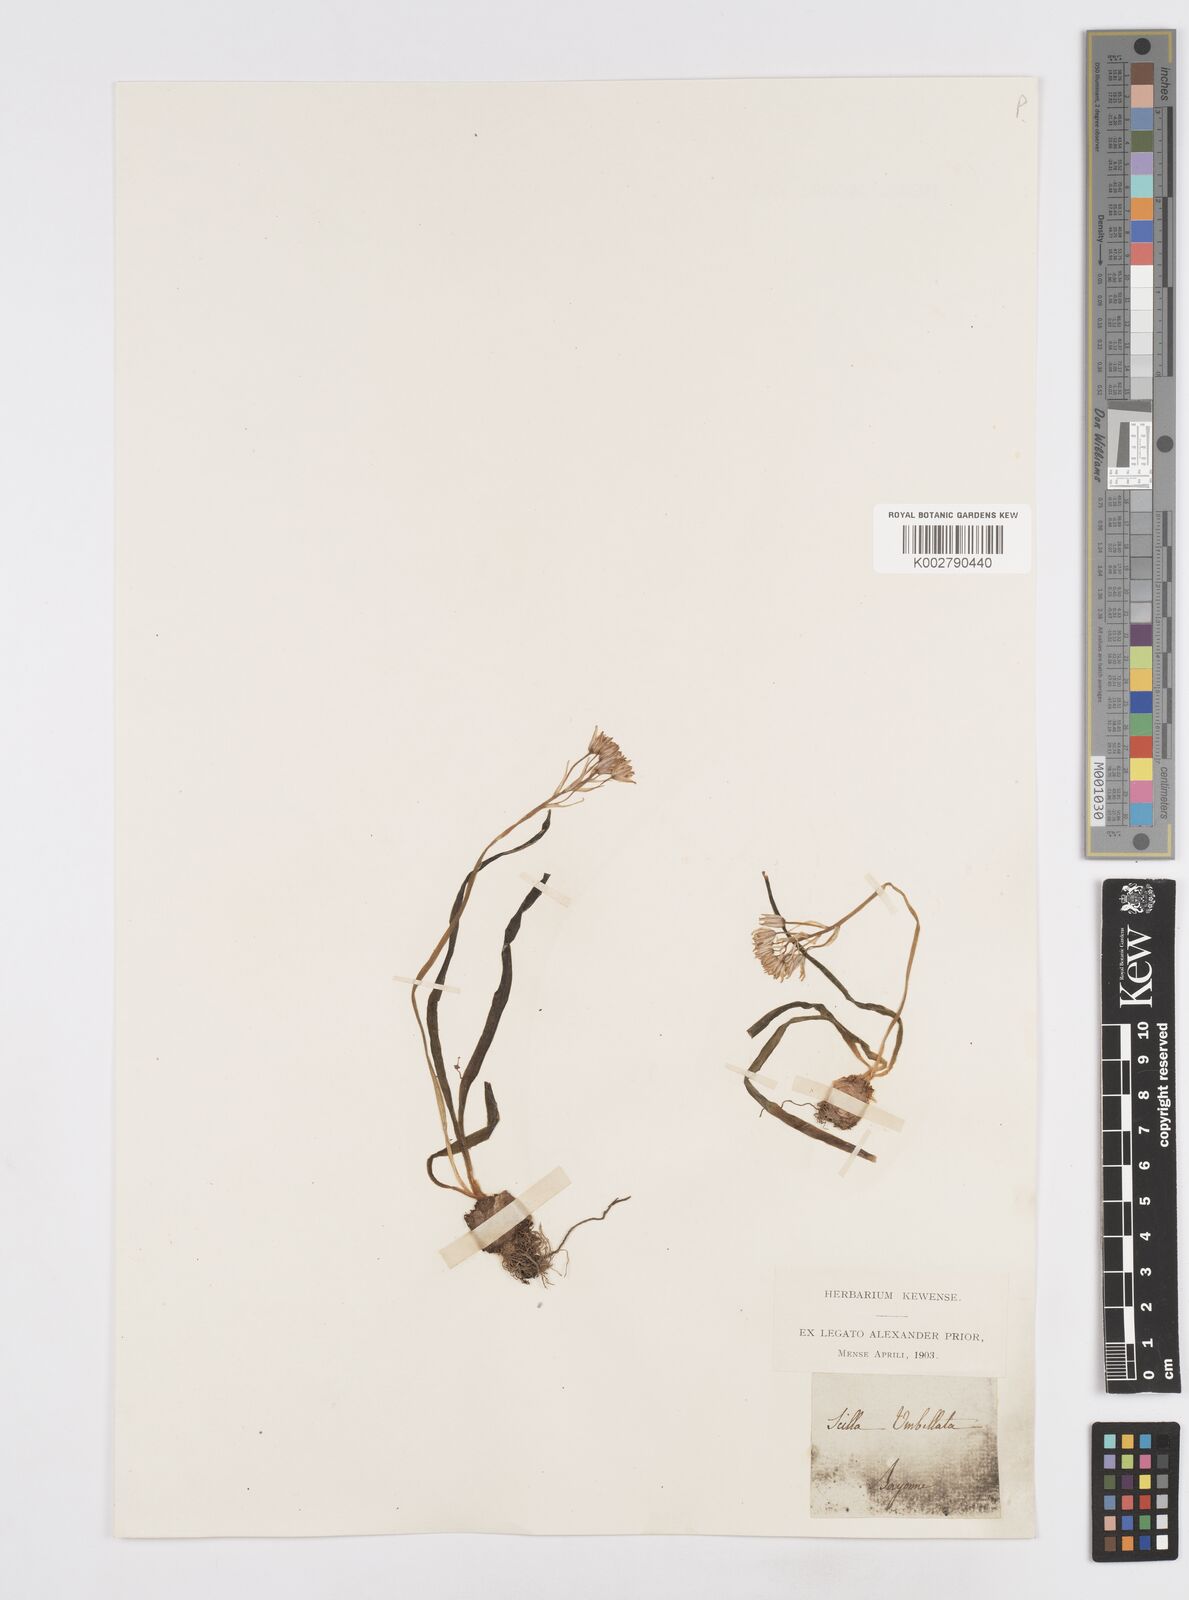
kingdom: Plantae
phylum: Tracheophyta
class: Liliopsida
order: Asparagales
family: Asparagaceae
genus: Scilla
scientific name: Scilla verna
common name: Spring squill
